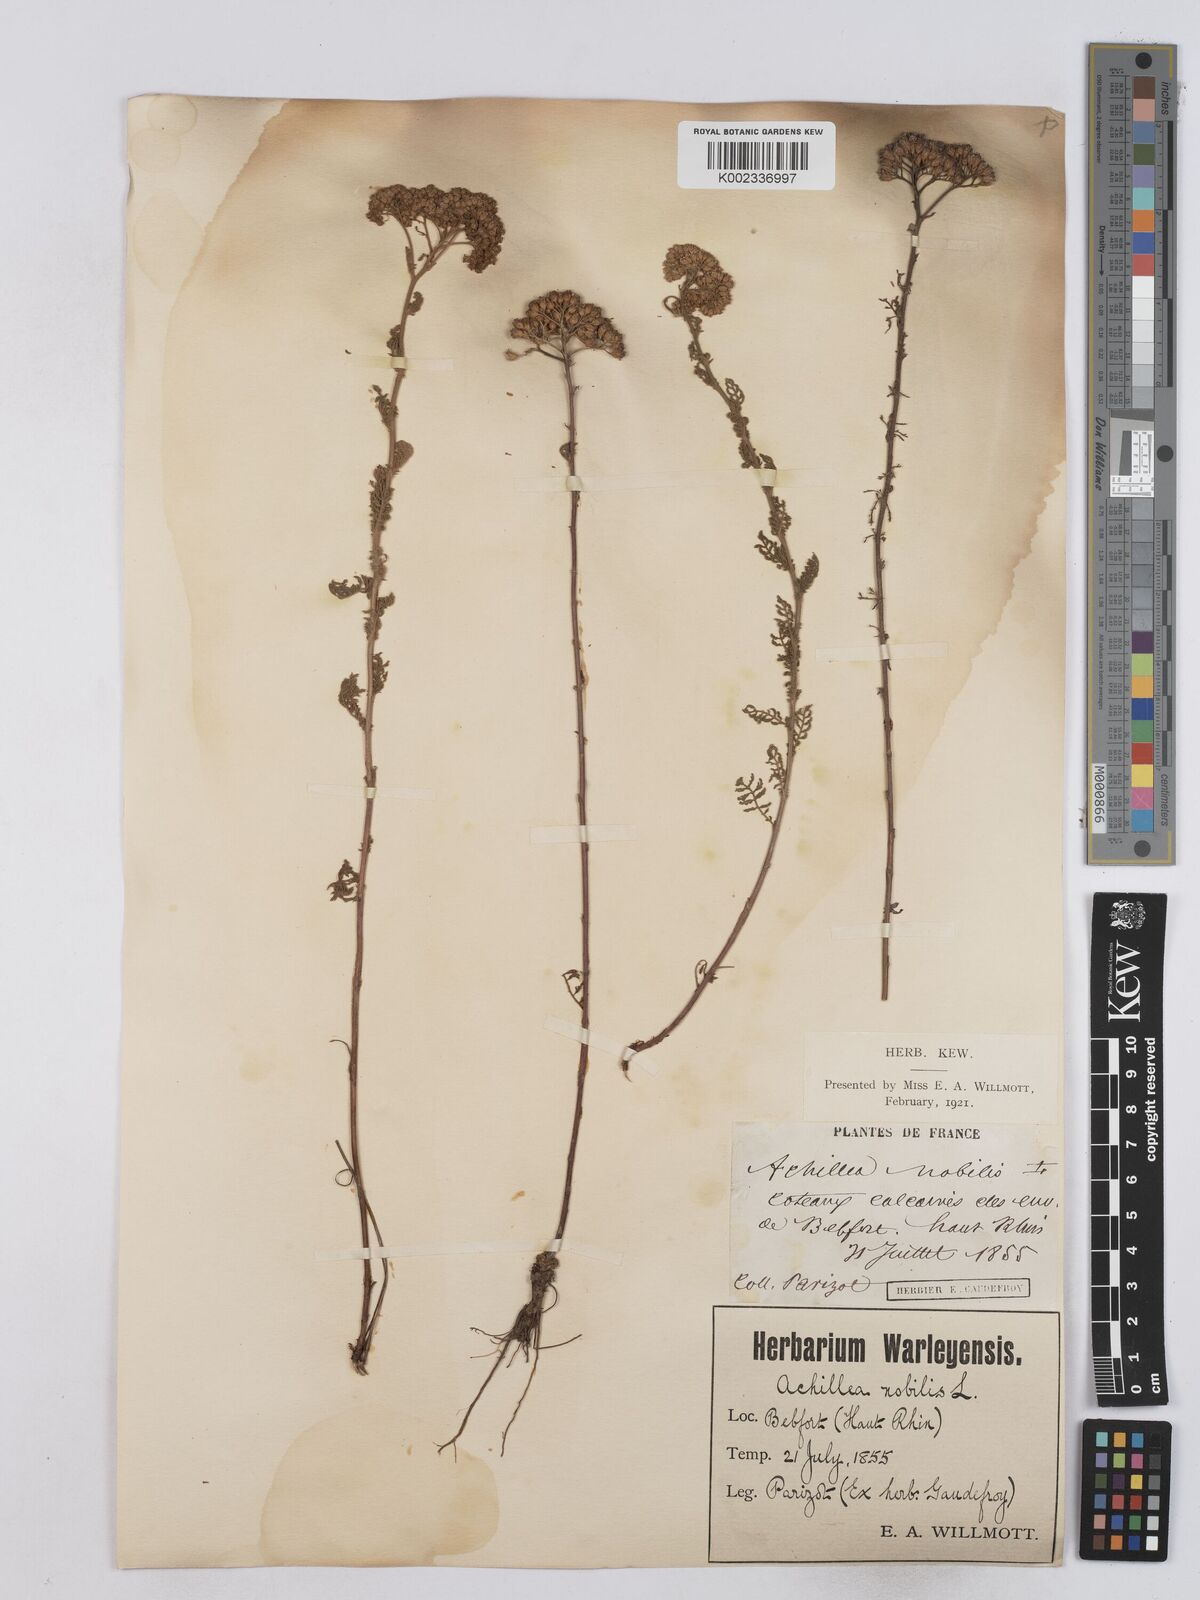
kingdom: Plantae
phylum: Tracheophyta
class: Magnoliopsida
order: Asterales
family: Asteraceae
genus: Achillea
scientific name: Achillea nobilis
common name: Noble yarrow
